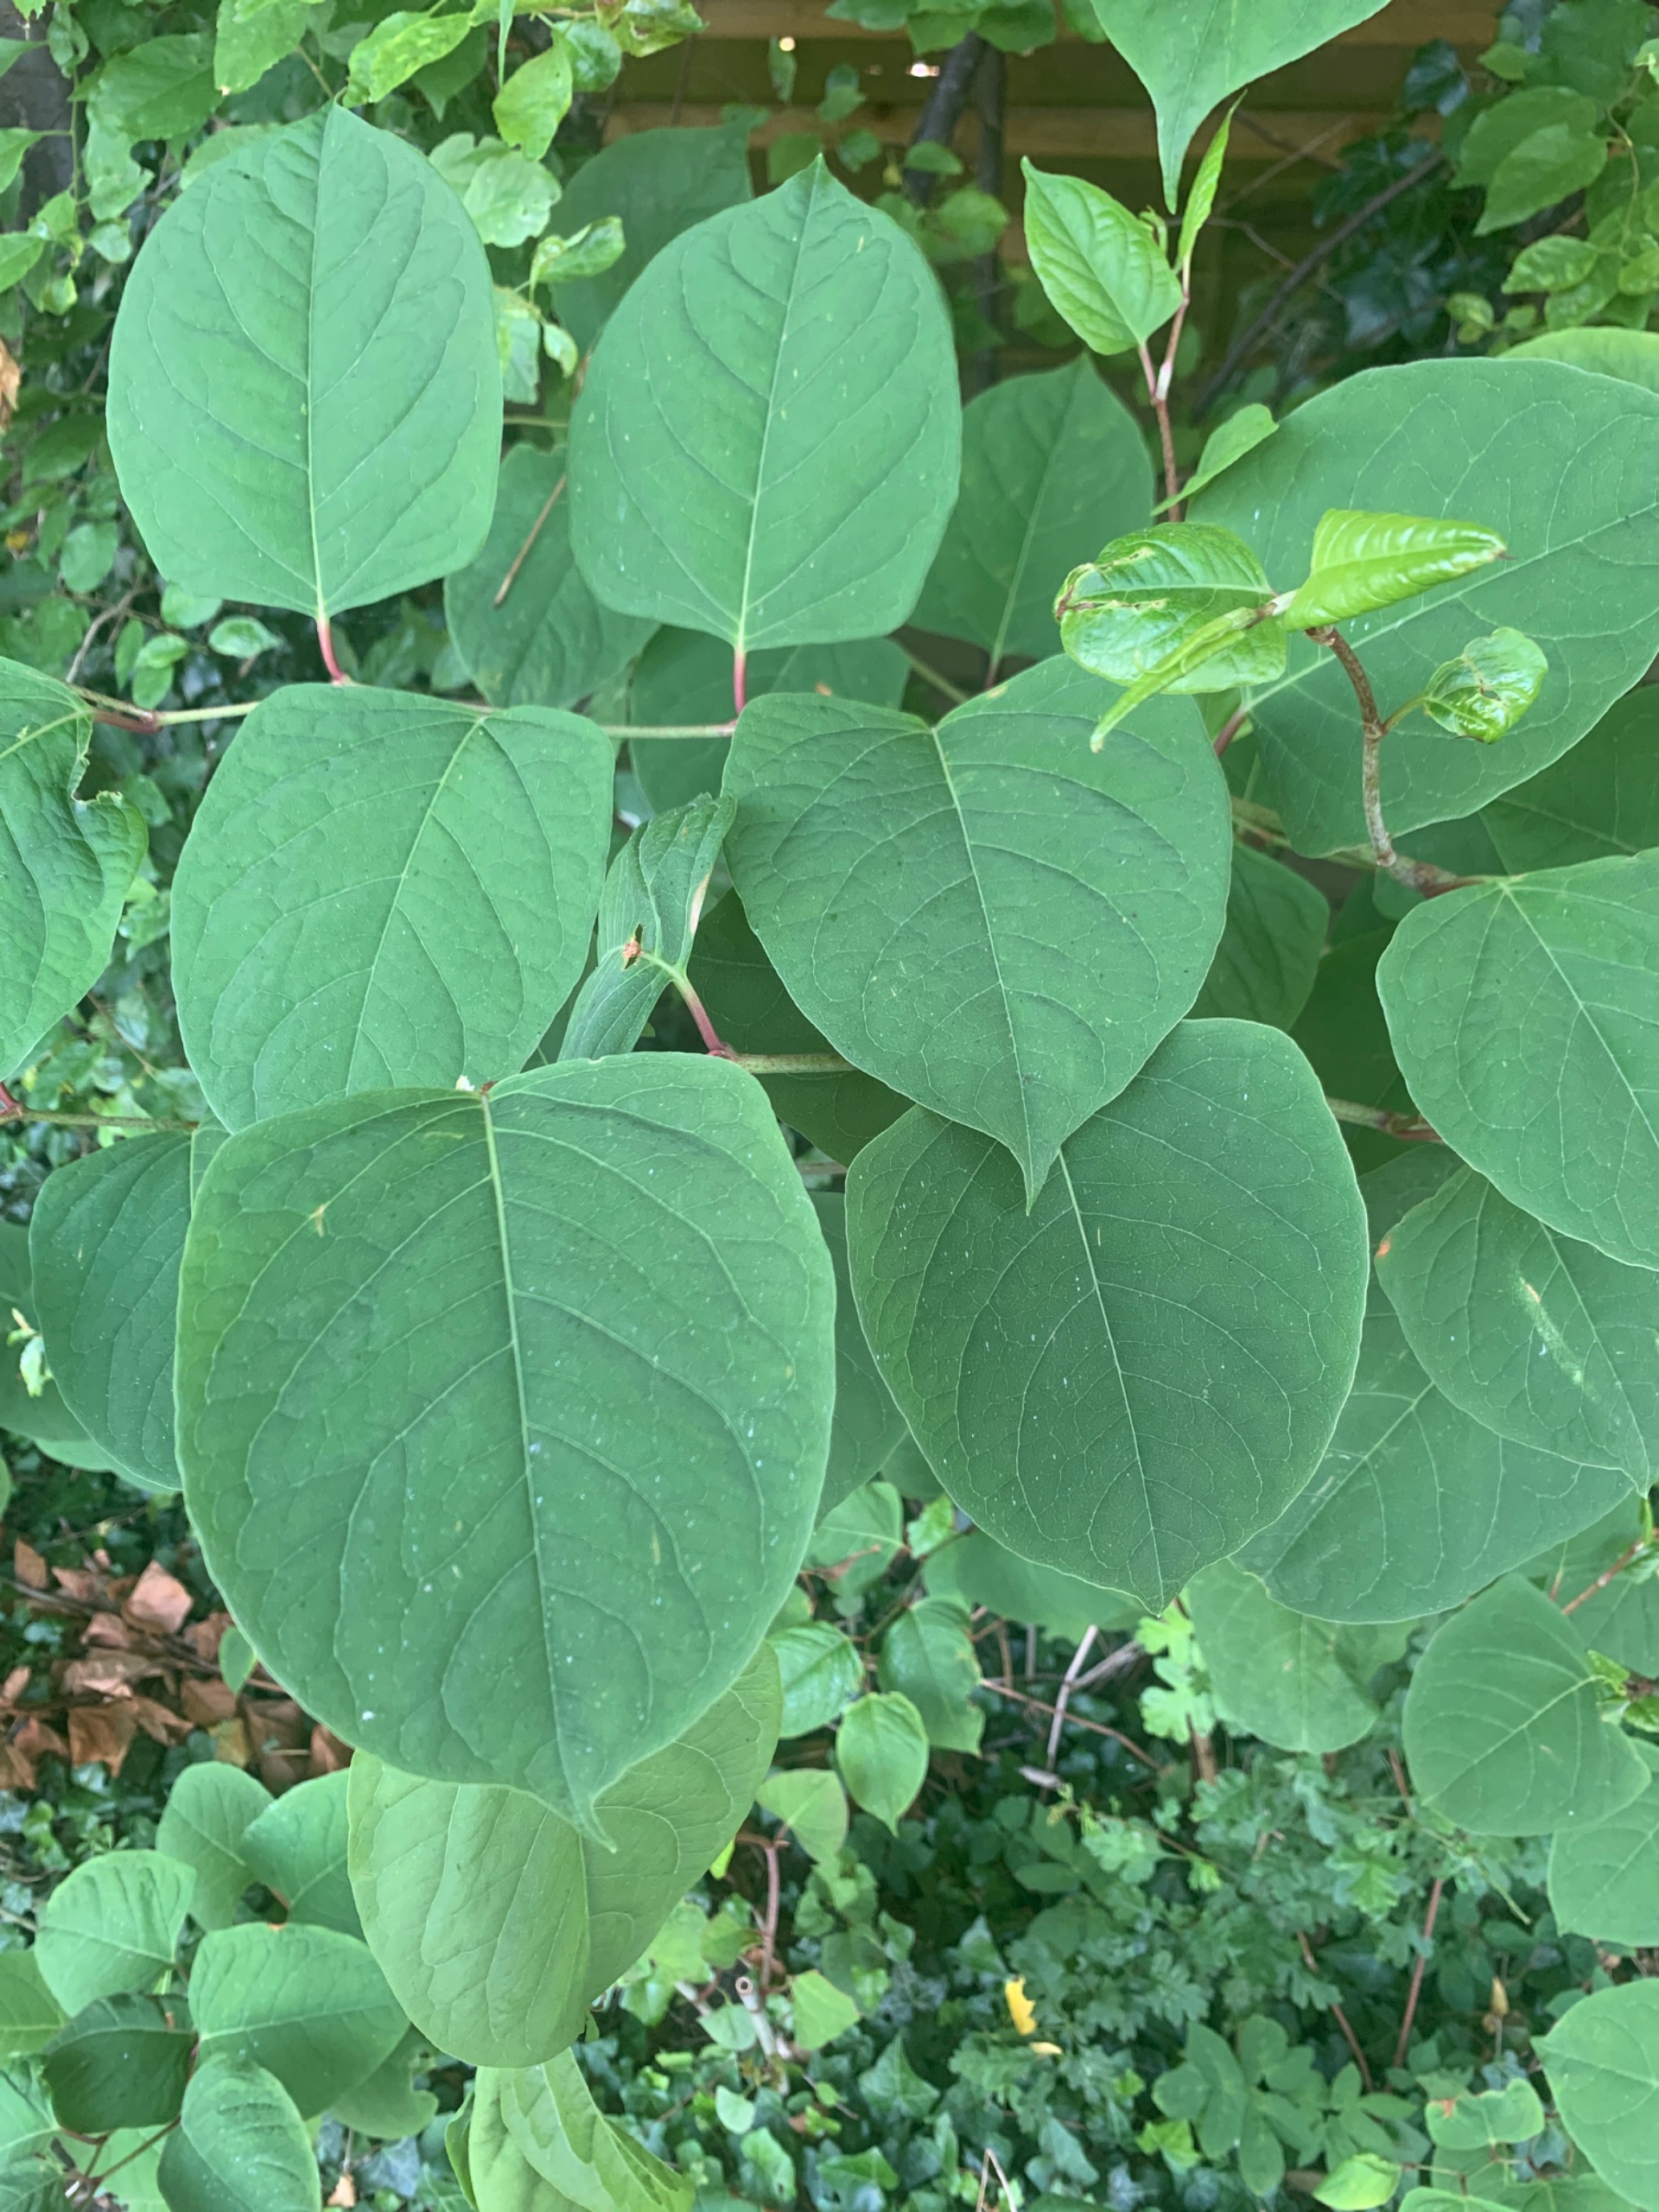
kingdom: Plantae
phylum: Tracheophyta
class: Magnoliopsida
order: Caryophyllales
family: Polygonaceae
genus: Reynoutria
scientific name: Reynoutria japonica
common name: Japan-pileurt
